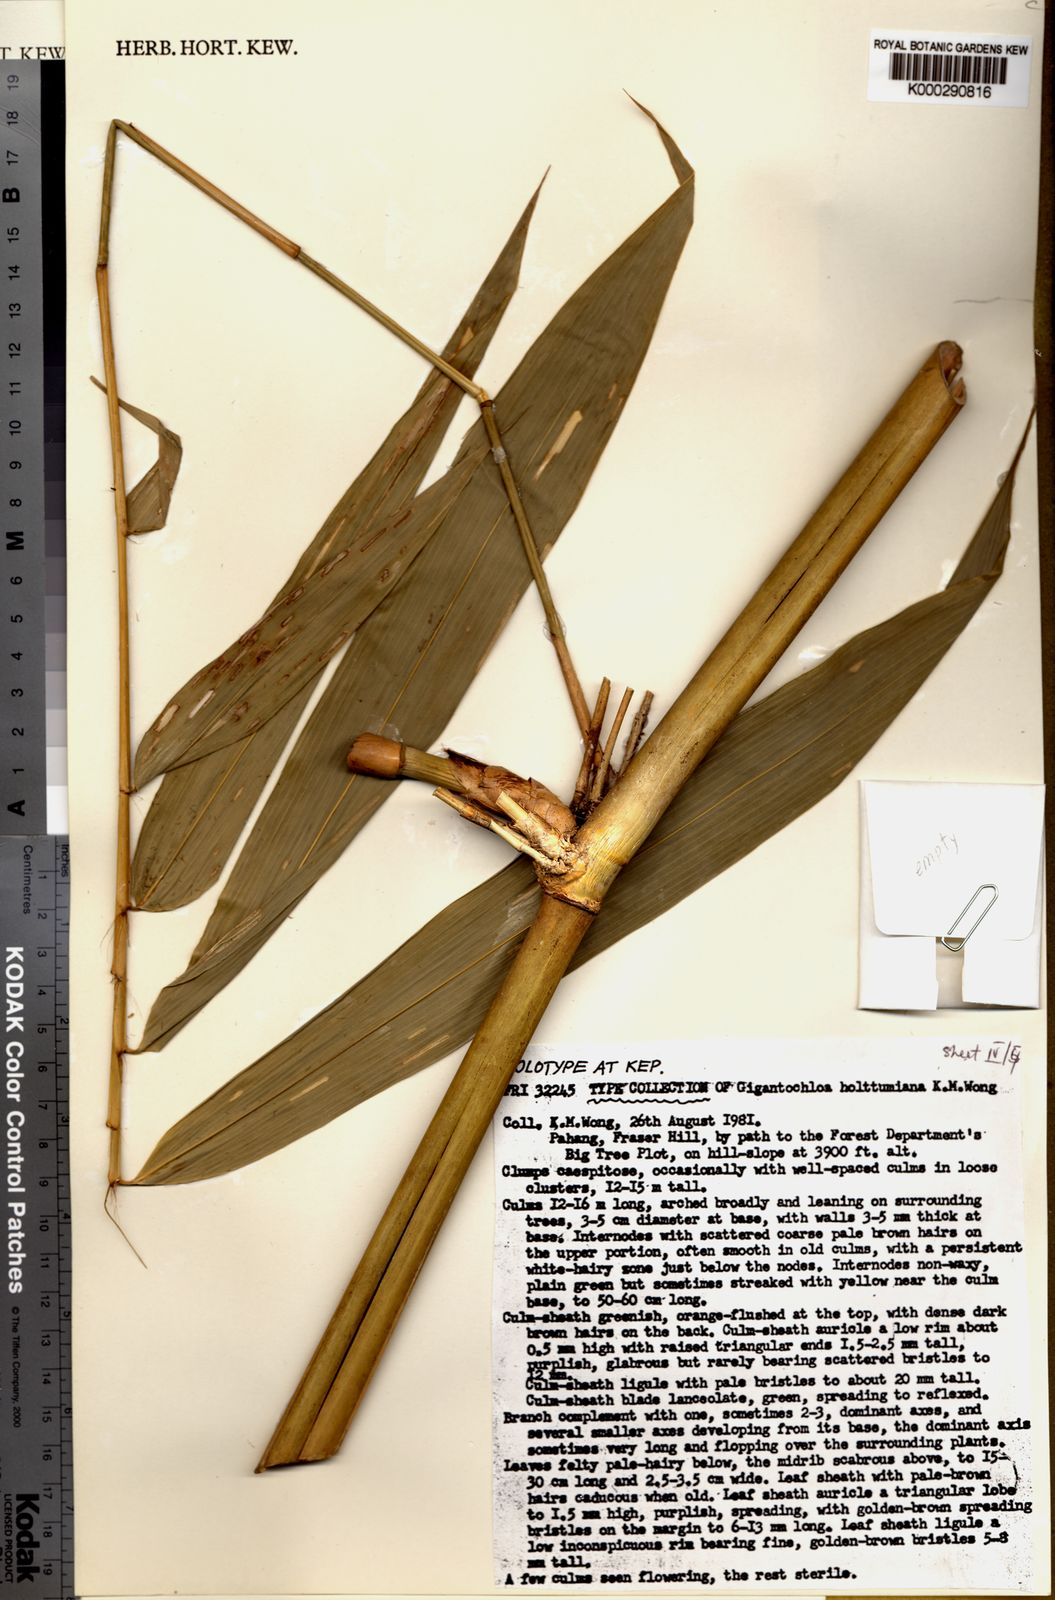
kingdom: Plantae
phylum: Tracheophyta
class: Liliopsida
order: Poales
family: Poaceae
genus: Gigantochloa
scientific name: Gigantochloa holttumiana
